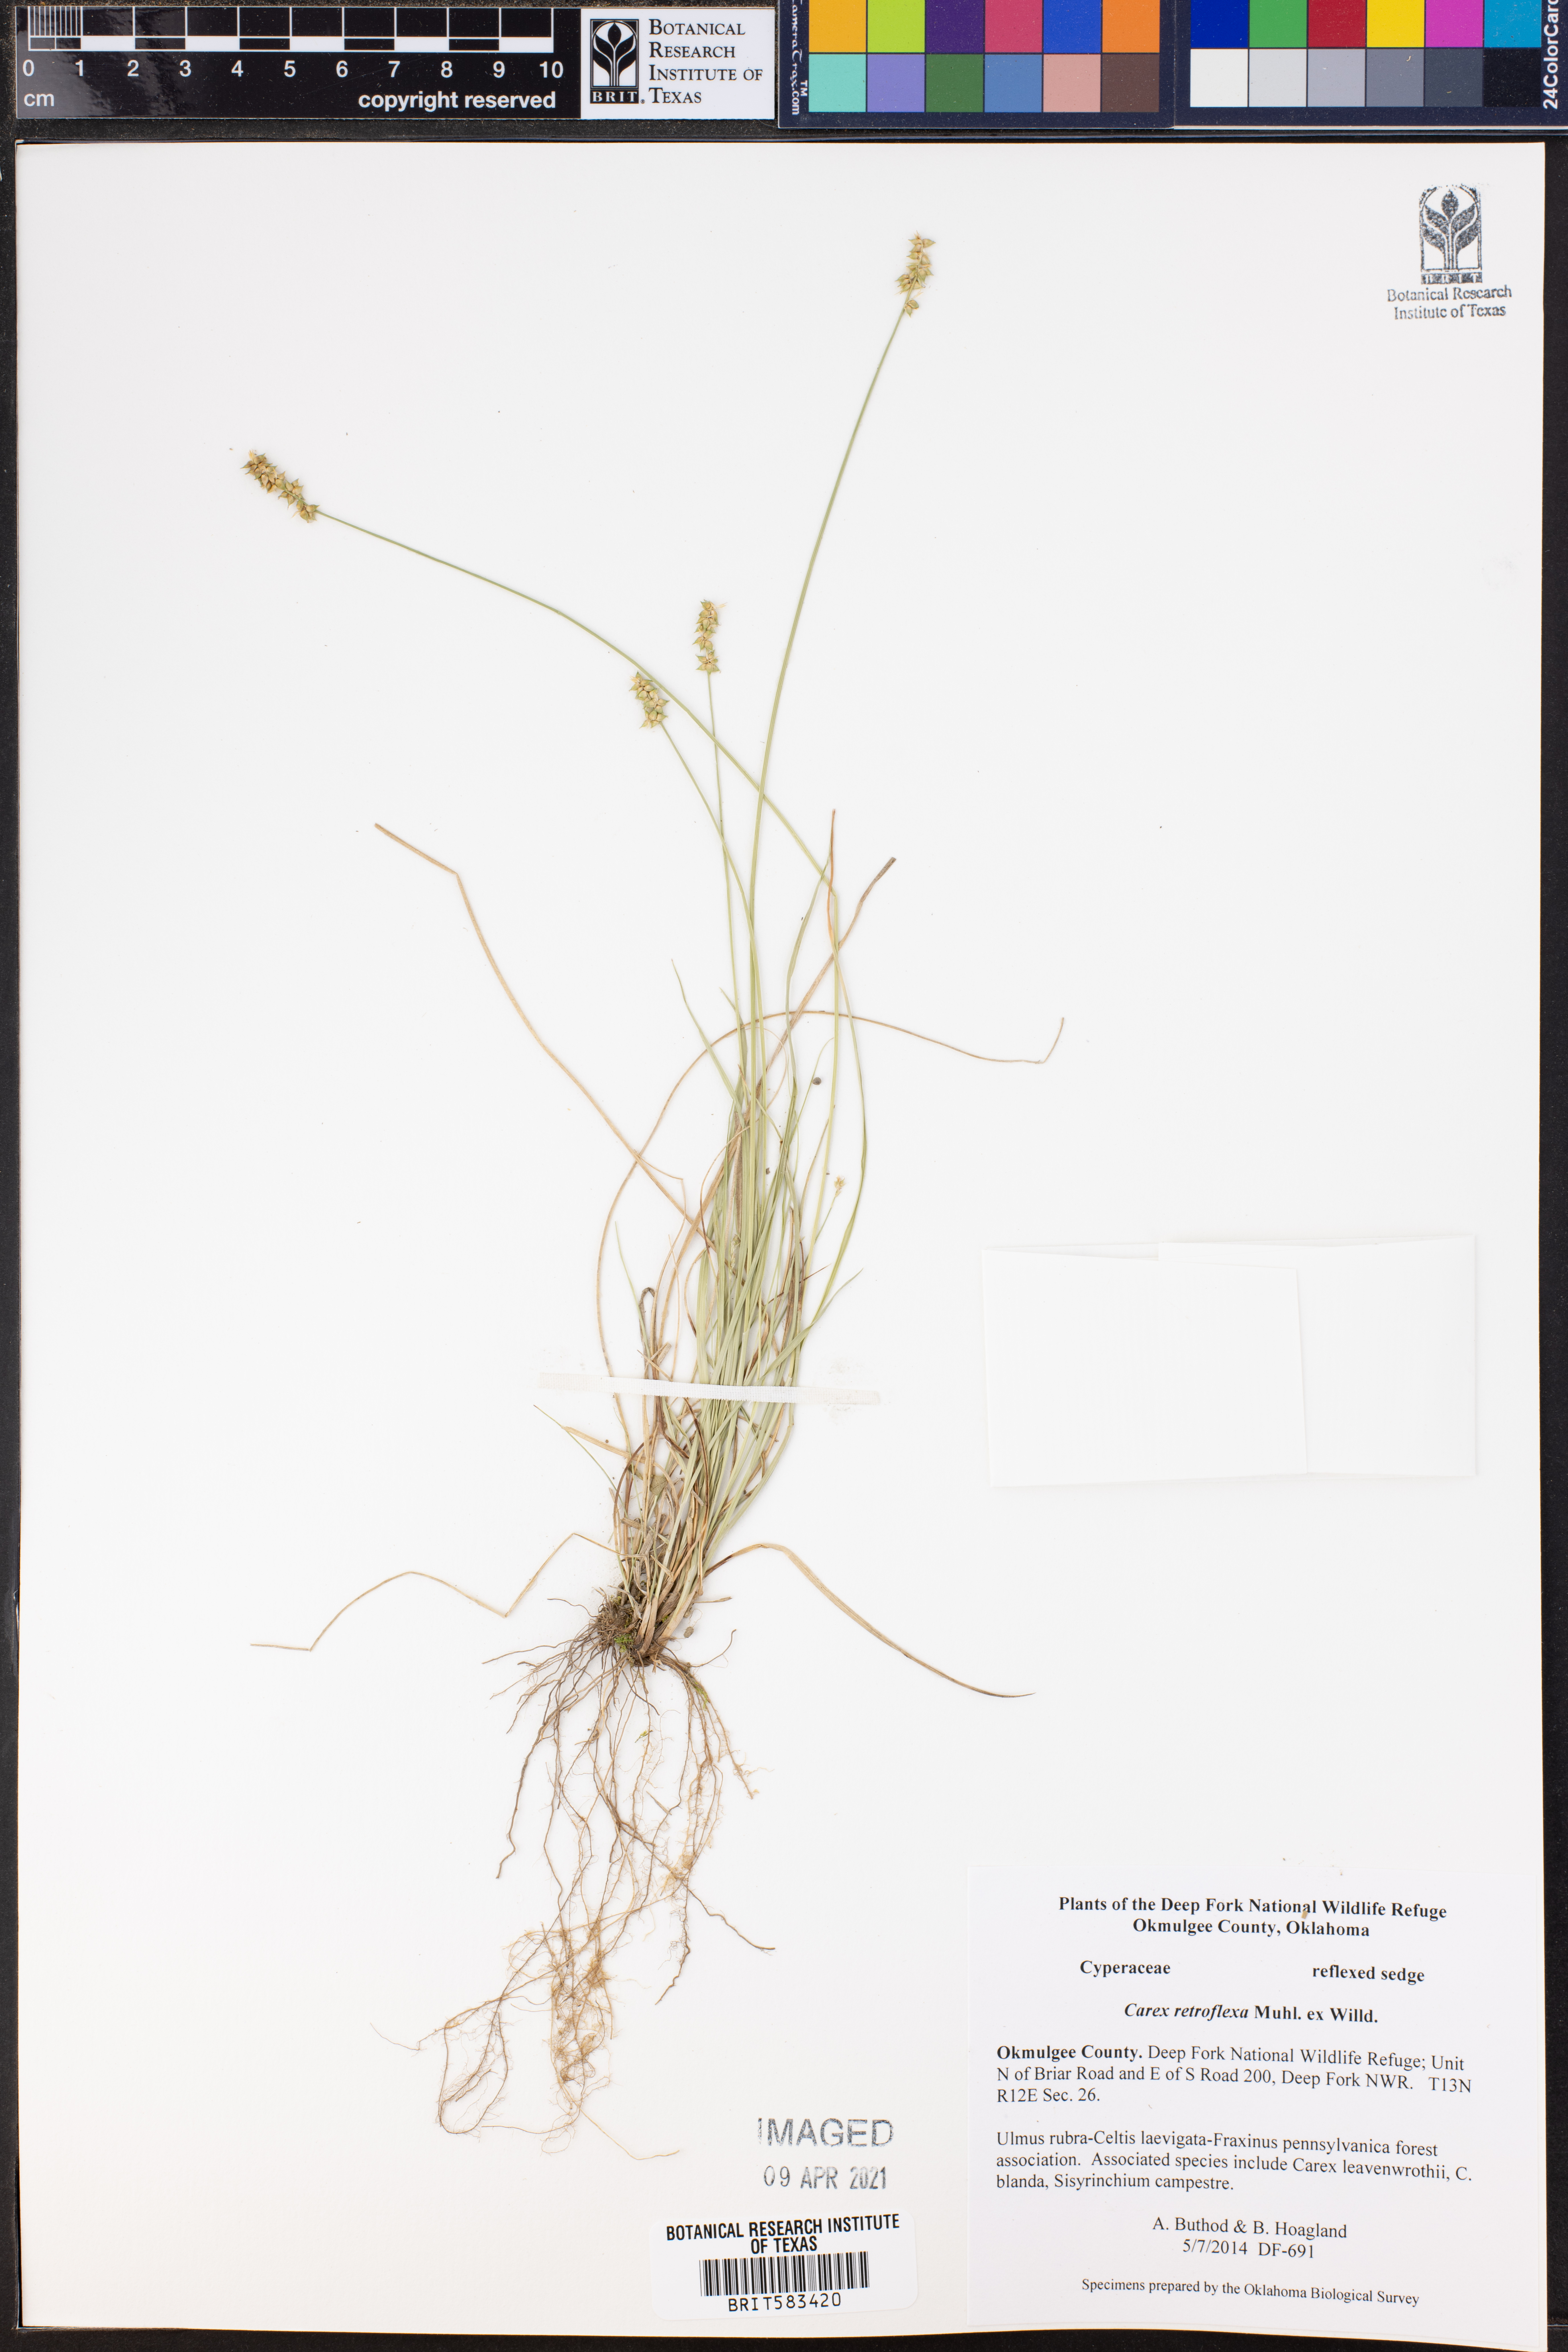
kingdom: Plantae
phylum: Tracheophyta
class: Liliopsida
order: Poales
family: Cyperaceae
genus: Carex
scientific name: Carex retroflexa
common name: Reflexed sedge
